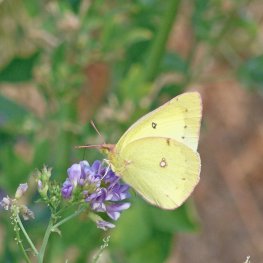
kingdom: Animalia
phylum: Arthropoda
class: Insecta
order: Lepidoptera
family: Pieridae
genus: Colias
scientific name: Colias philodice
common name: Clouded Sulphur
